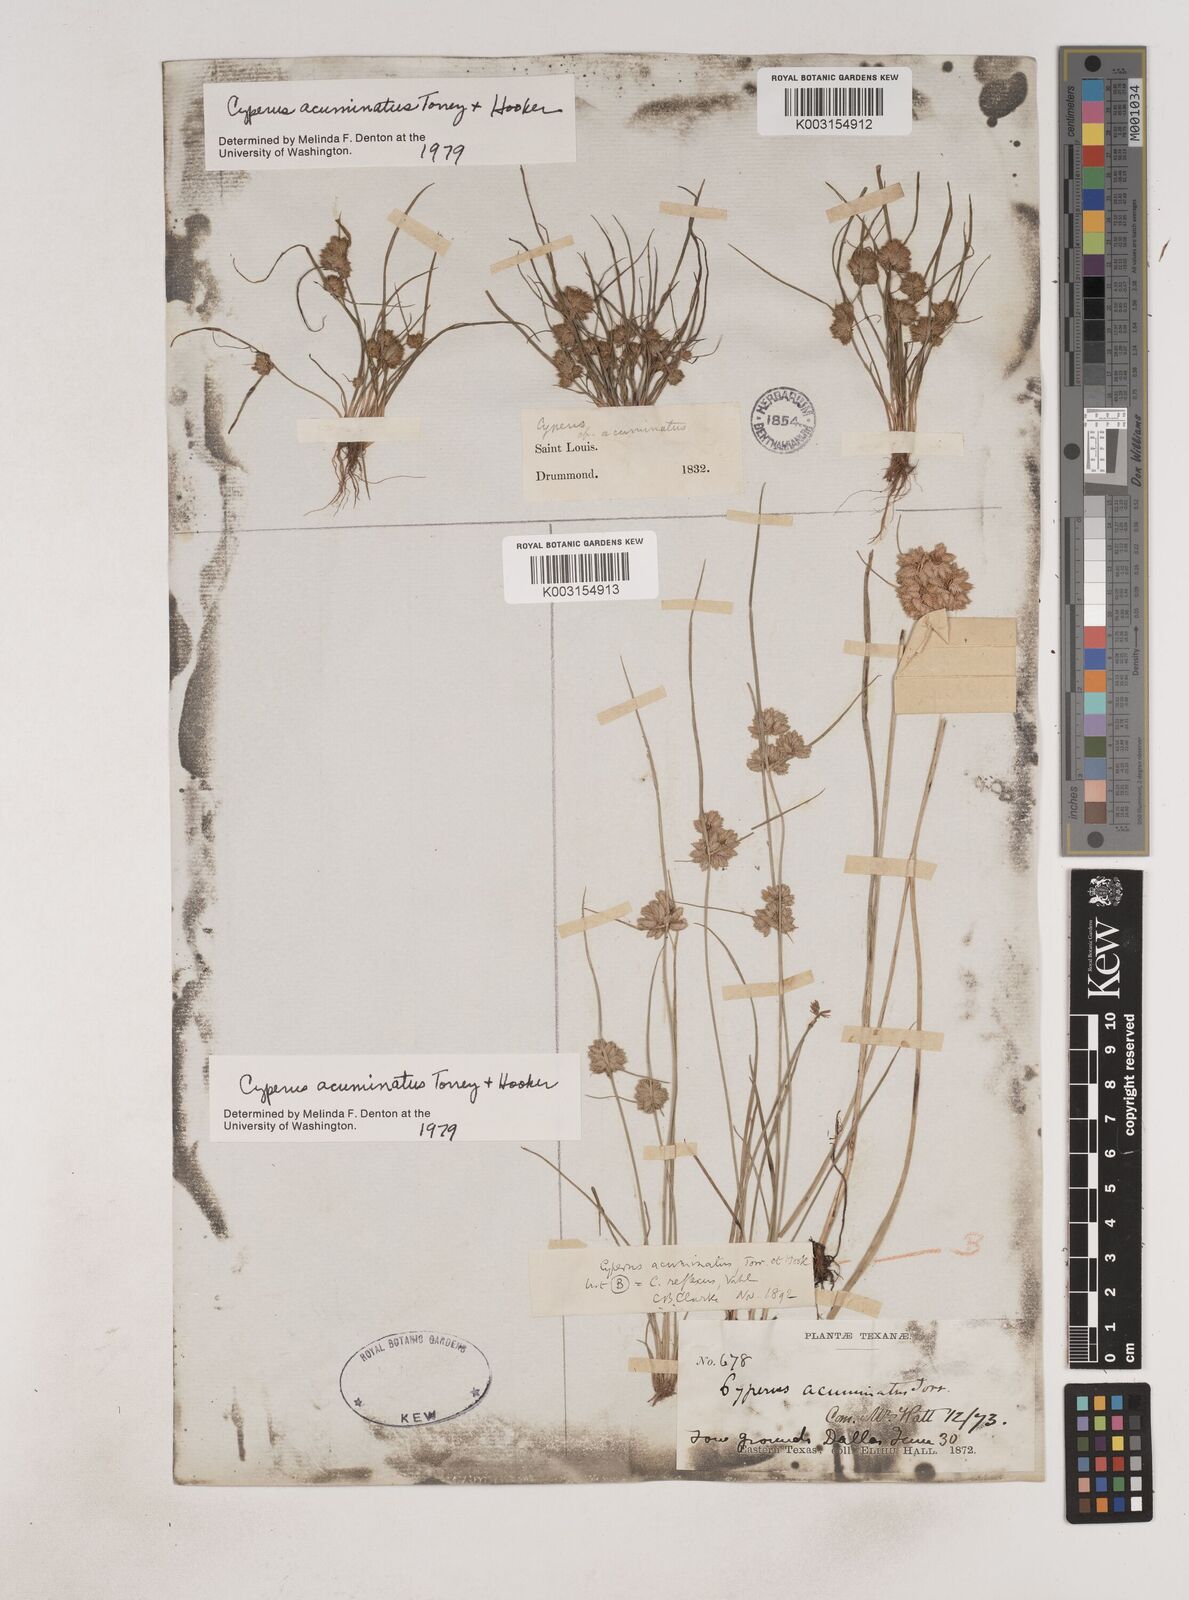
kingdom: Plantae
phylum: Tracheophyta
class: Liliopsida
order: Poales
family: Cyperaceae
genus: Cyperus
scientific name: Cyperus acuminatus
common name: Short-pointed cyperus
